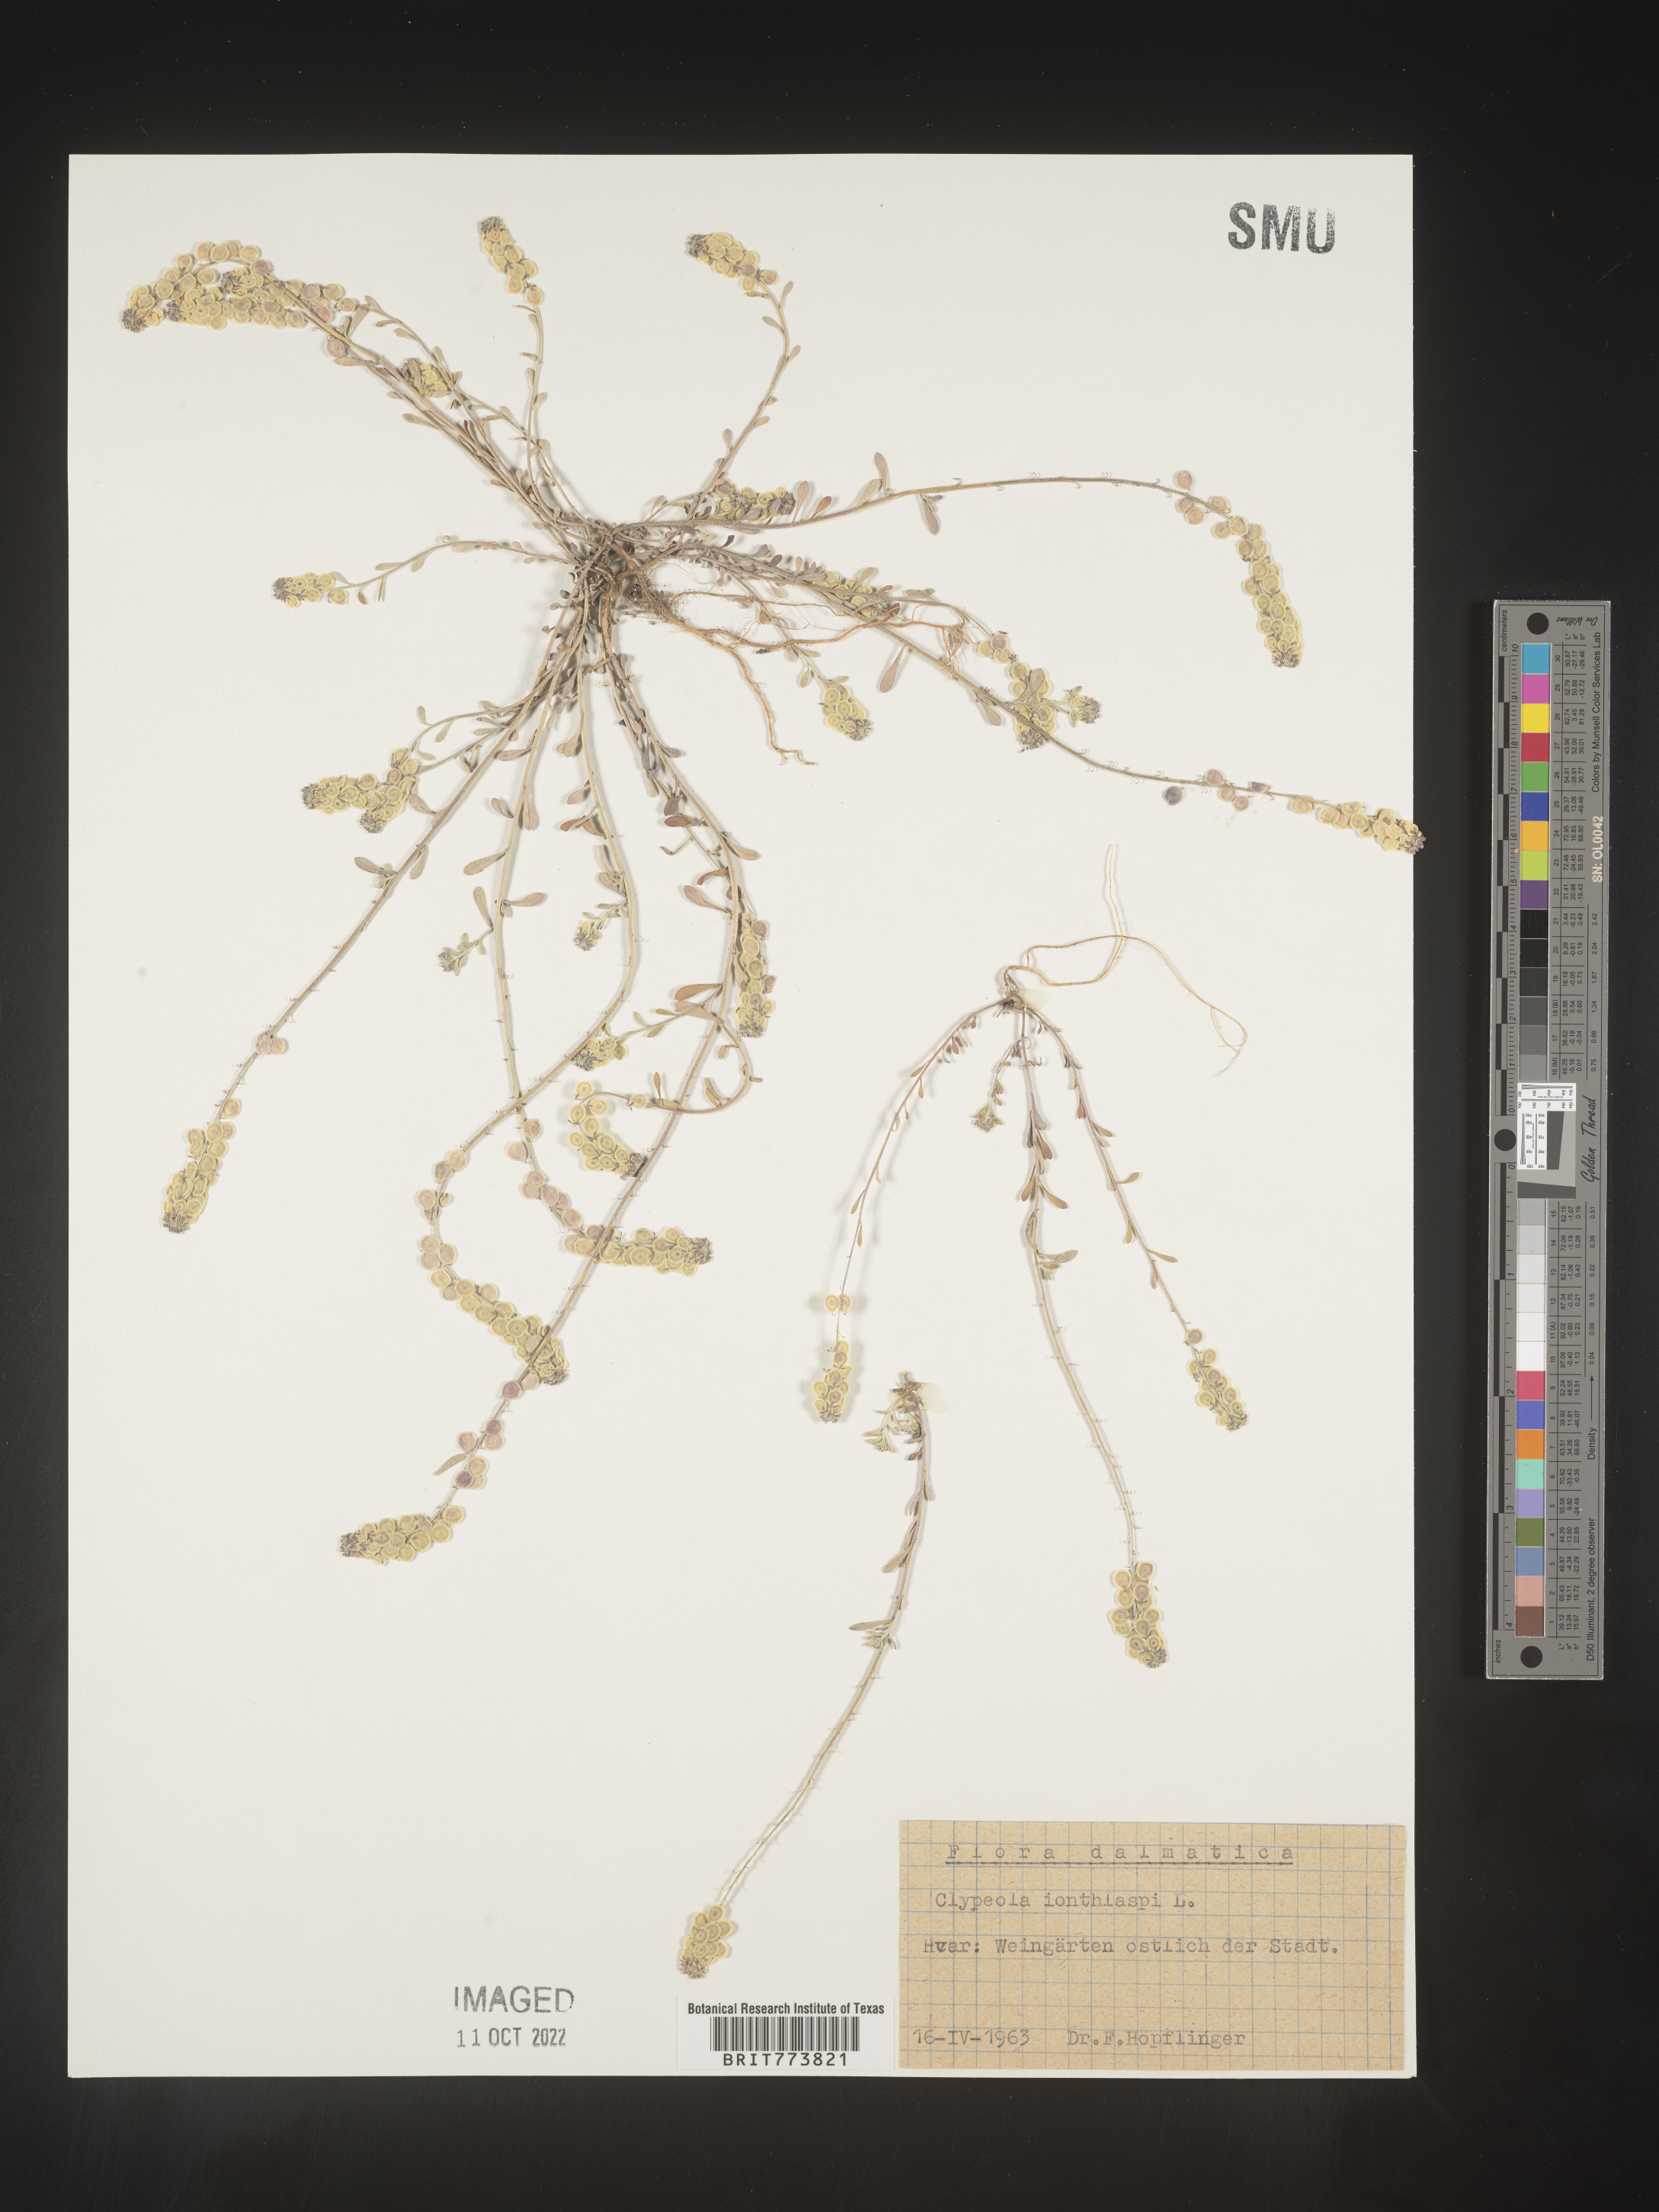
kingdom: Plantae
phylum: Tracheophyta
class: Magnoliopsida
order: Brassicales
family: Brassicaceae
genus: Clypeola
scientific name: Clypeola
